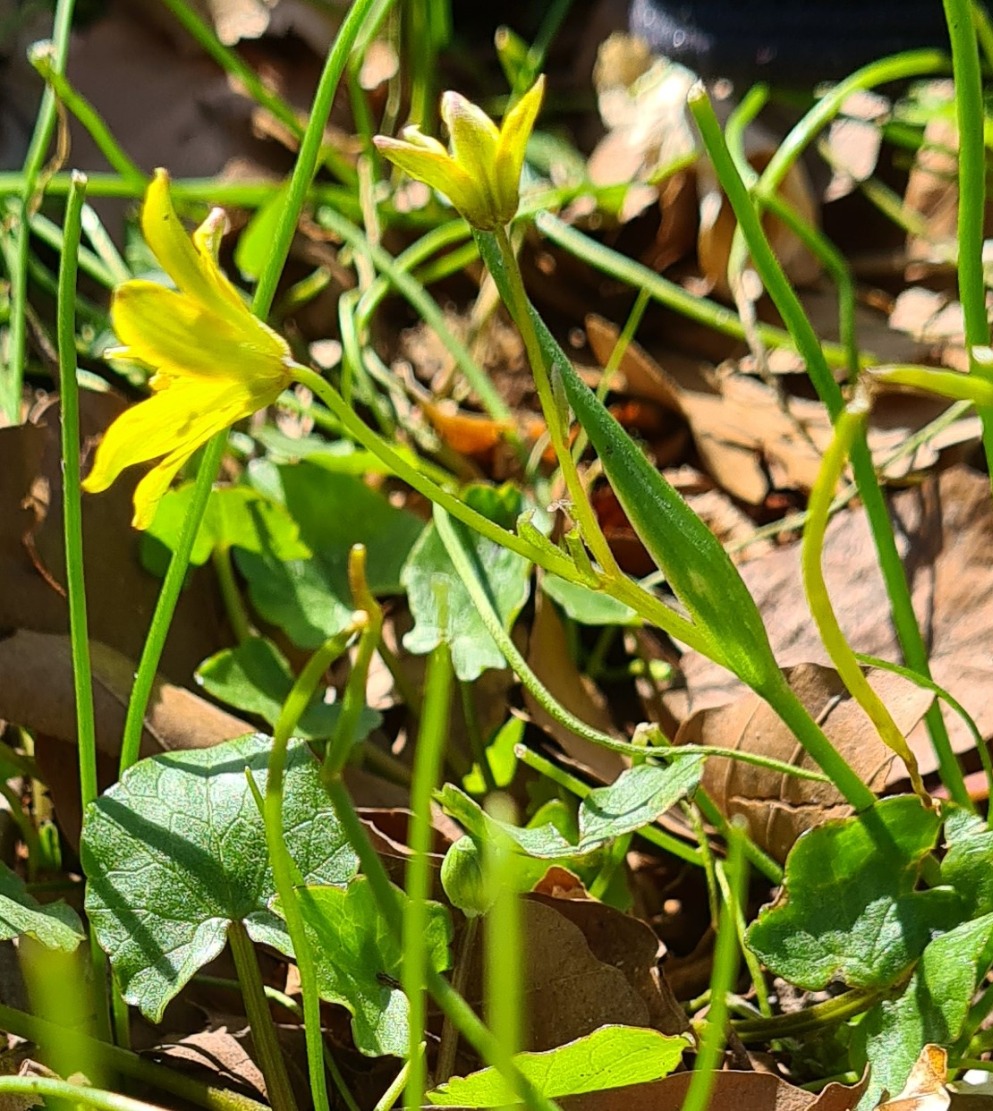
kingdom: Plantae
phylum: Tracheophyta
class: Liliopsida
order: Liliales
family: Liliaceae
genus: Gagea
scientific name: Gagea spathacea
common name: Hylster-guldstjerne
